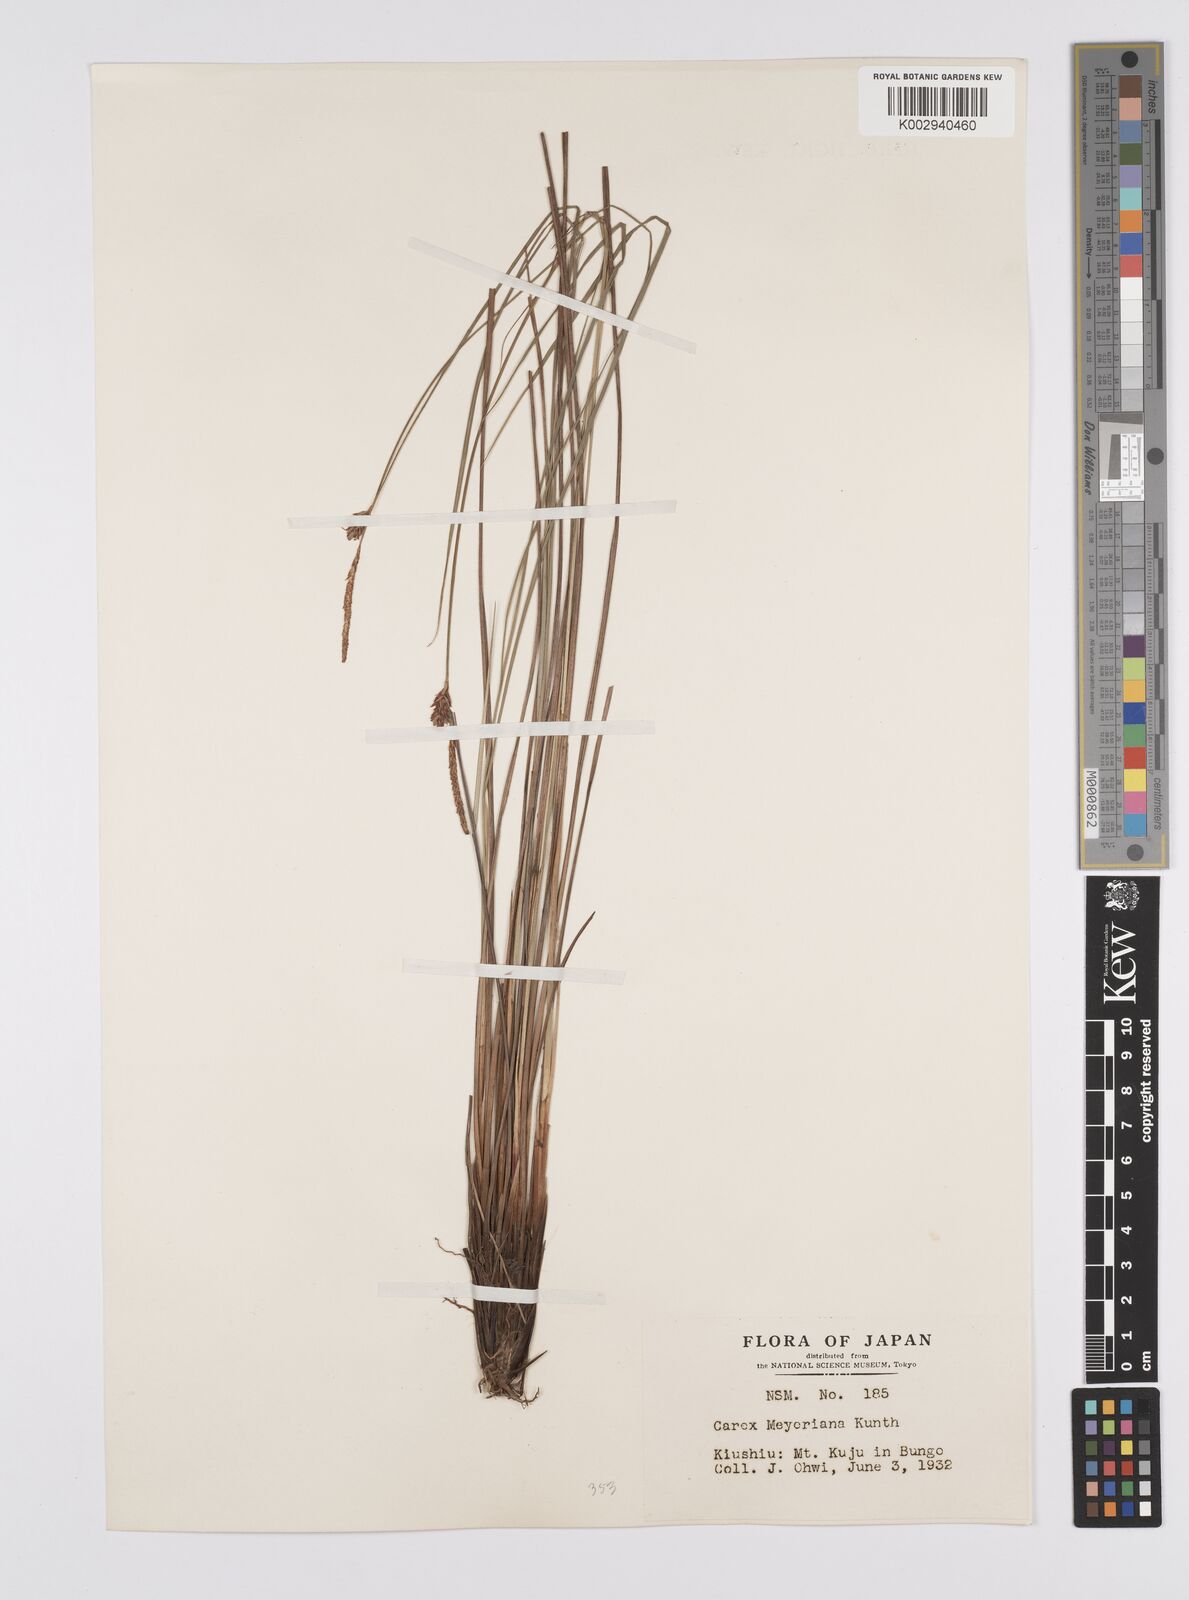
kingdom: Plantae
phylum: Tracheophyta
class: Liliopsida
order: Poales
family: Cyperaceae
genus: Carex
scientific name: Carex meyeriana
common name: Wula sedge
